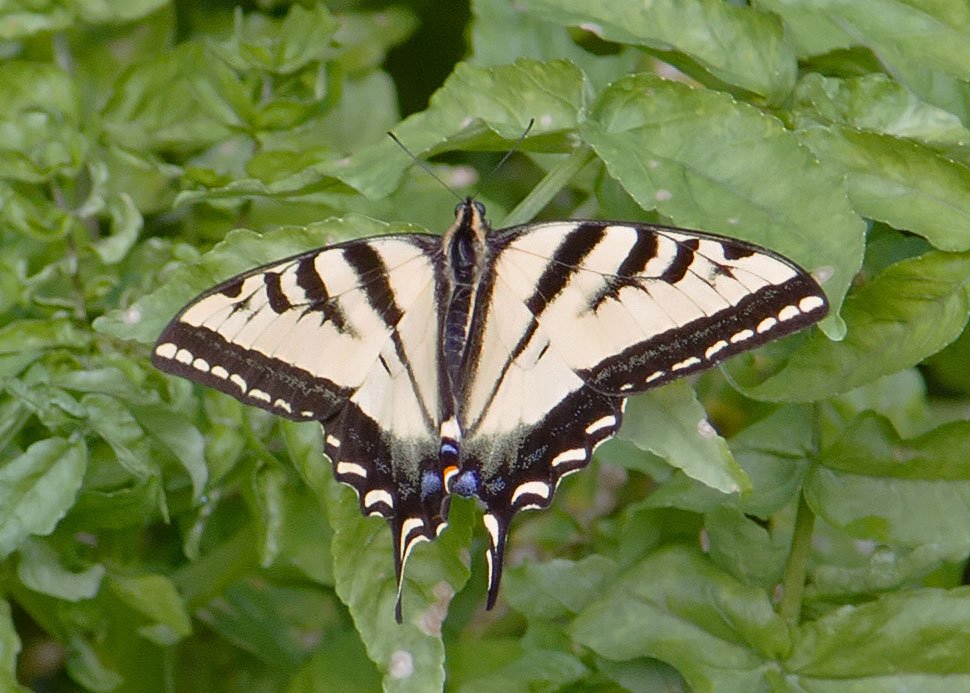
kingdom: Animalia
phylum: Arthropoda
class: Insecta
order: Lepidoptera
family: Papilionidae
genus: Pterourus
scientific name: Pterourus rutulus
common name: Western Tiger Swallowtail
